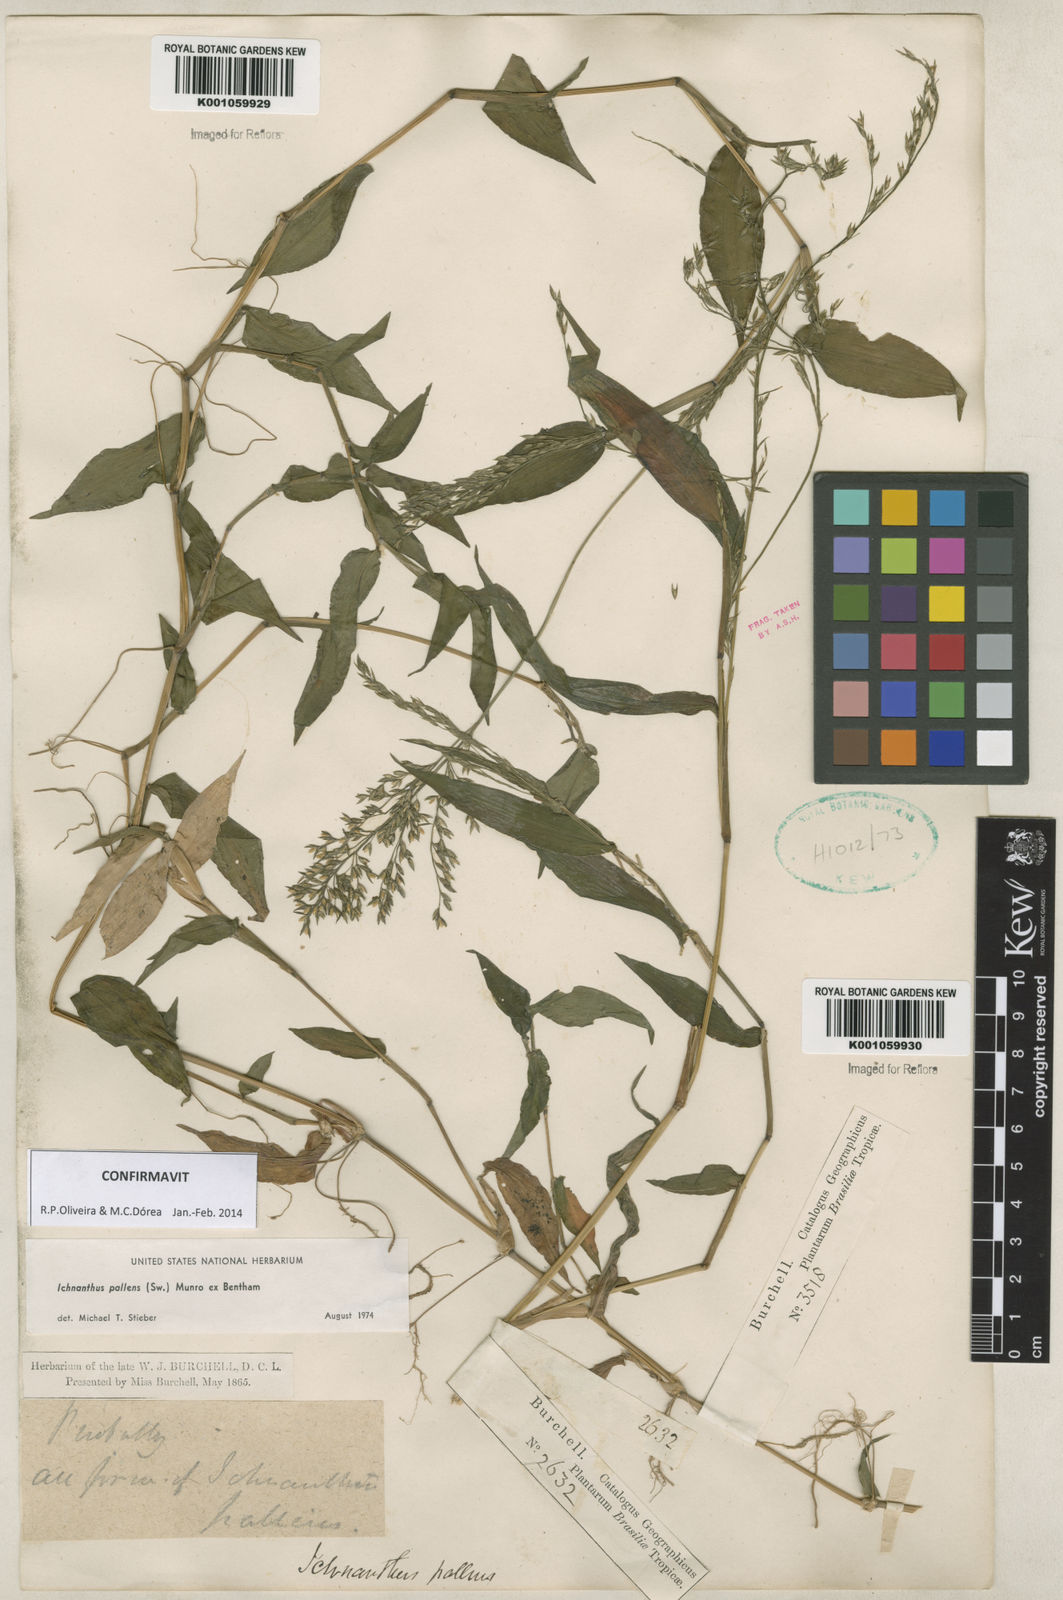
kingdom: Plantae
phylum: Tracheophyta
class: Liliopsida
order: Poales
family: Poaceae
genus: Ichnanthus
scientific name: Ichnanthus pallens
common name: Water grass
